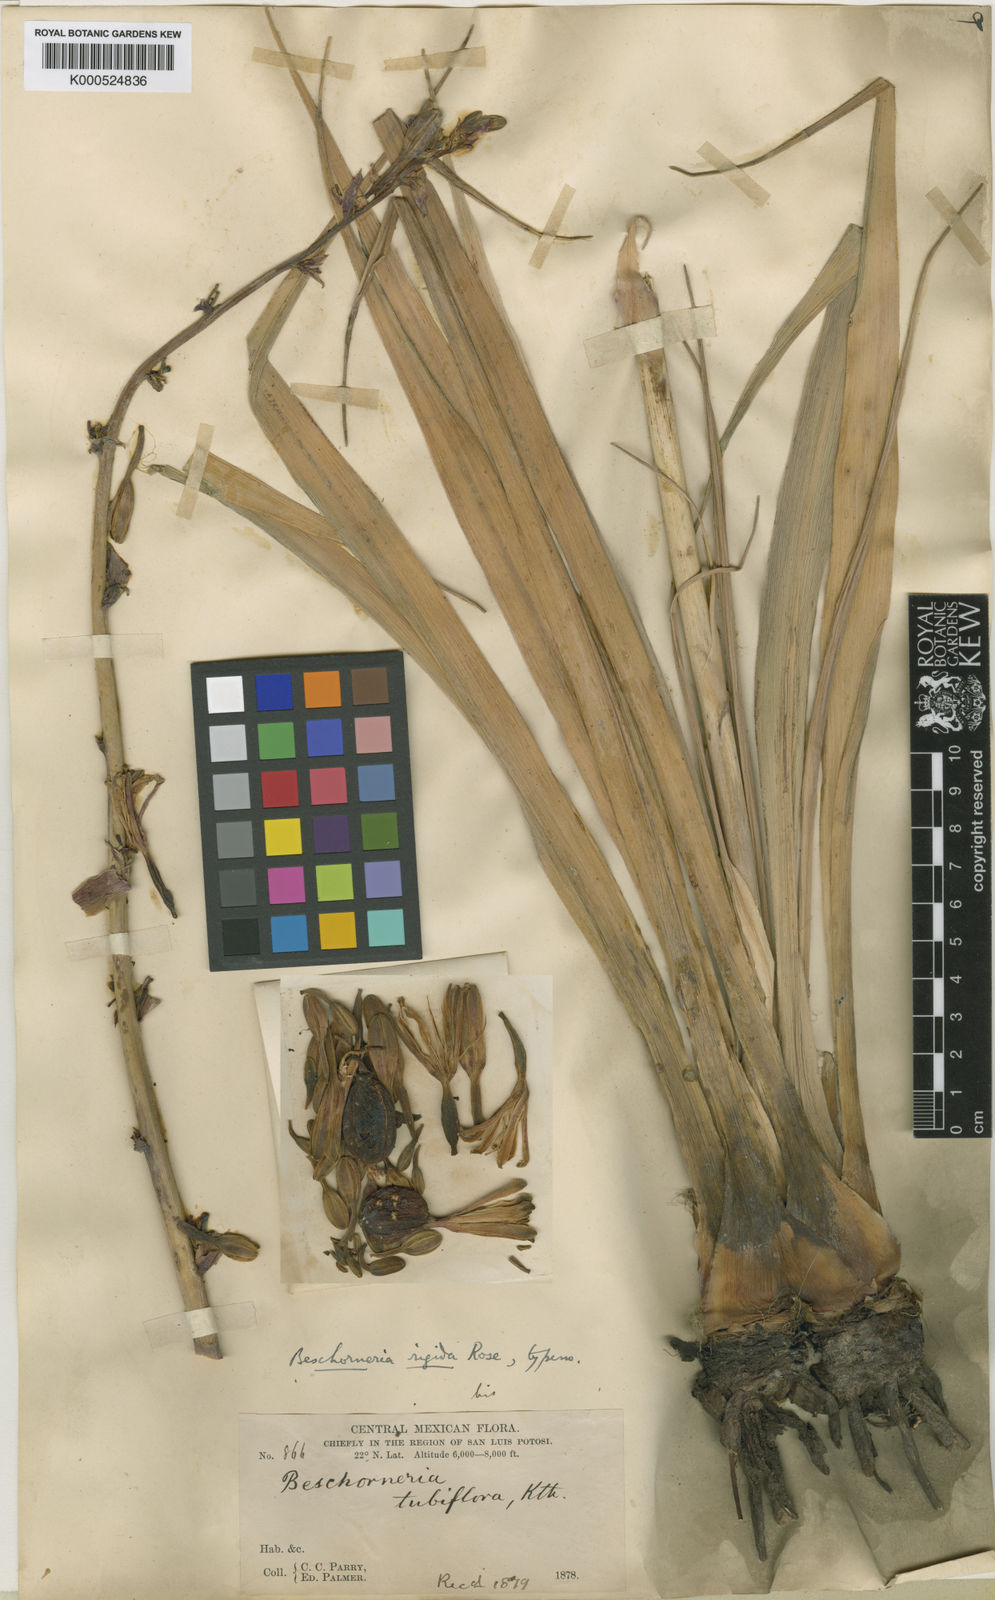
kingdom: Plantae
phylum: Tracheophyta
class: Liliopsida
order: Asparagales
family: Asparagaceae
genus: Beschorneria
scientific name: Beschorneria rigida
